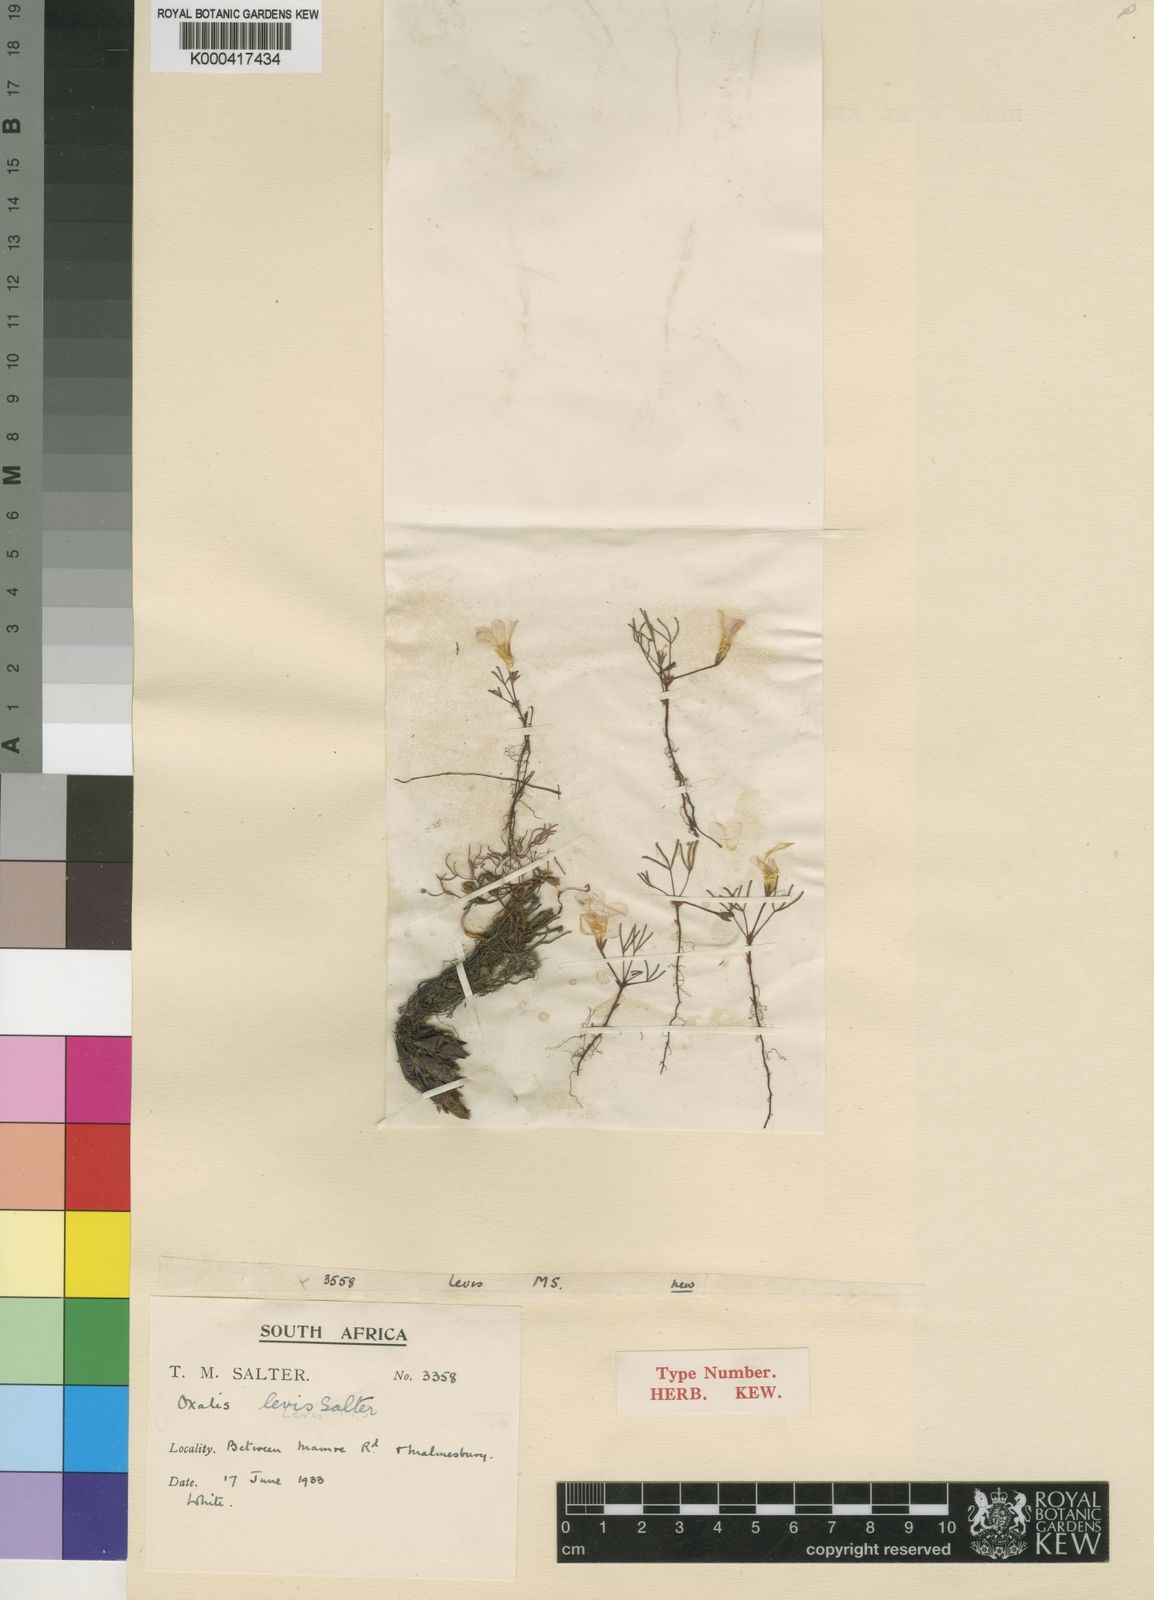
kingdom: Plantae
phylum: Tracheophyta
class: Magnoliopsida
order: Oxalidales
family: Oxalidaceae
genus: Oxalis
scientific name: Oxalis levis
